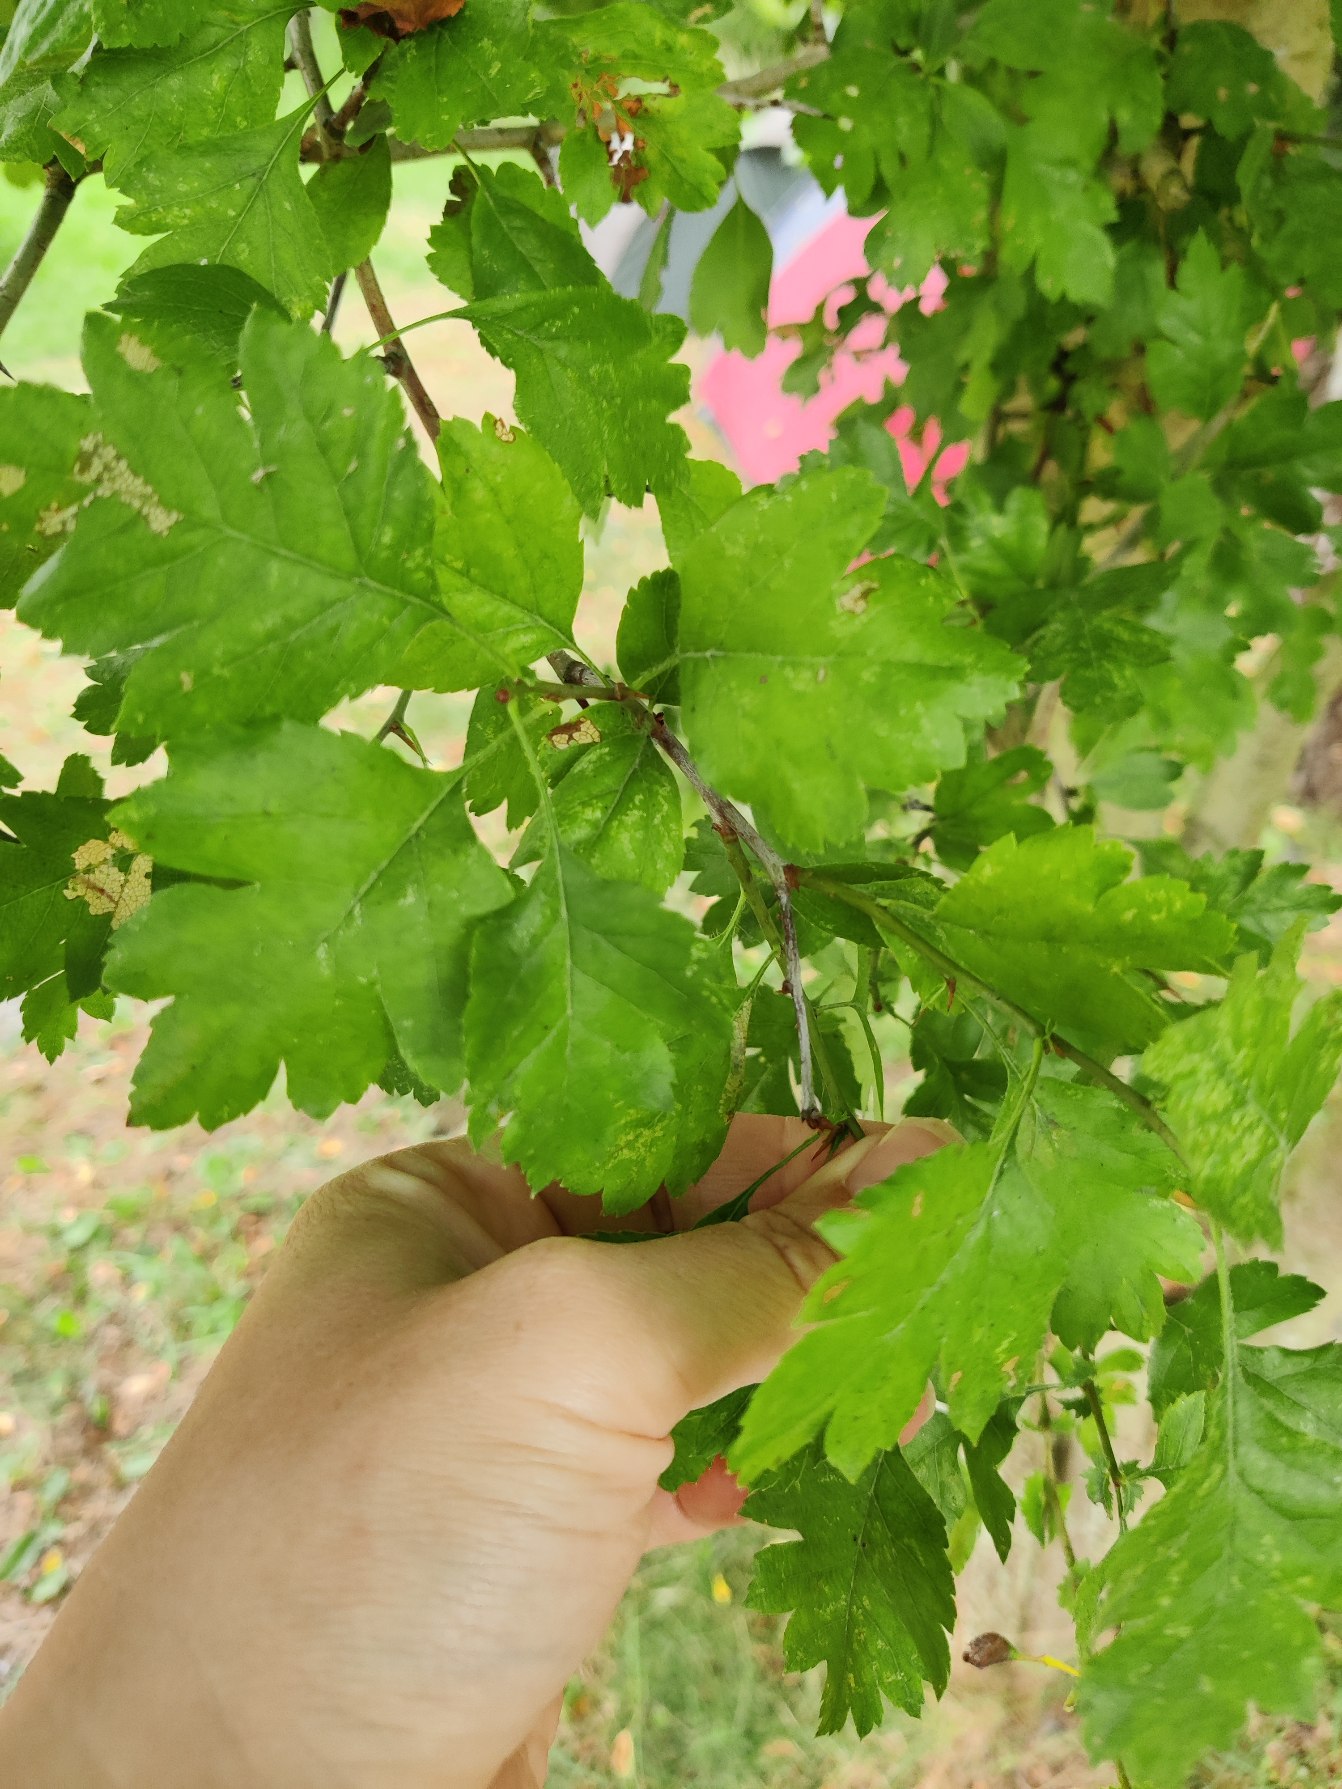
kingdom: Plantae
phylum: Tracheophyta
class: Magnoliopsida
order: Rosales
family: Rosaceae
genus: Crataegus
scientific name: Crataegus
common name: Hvidtjørnslægten
